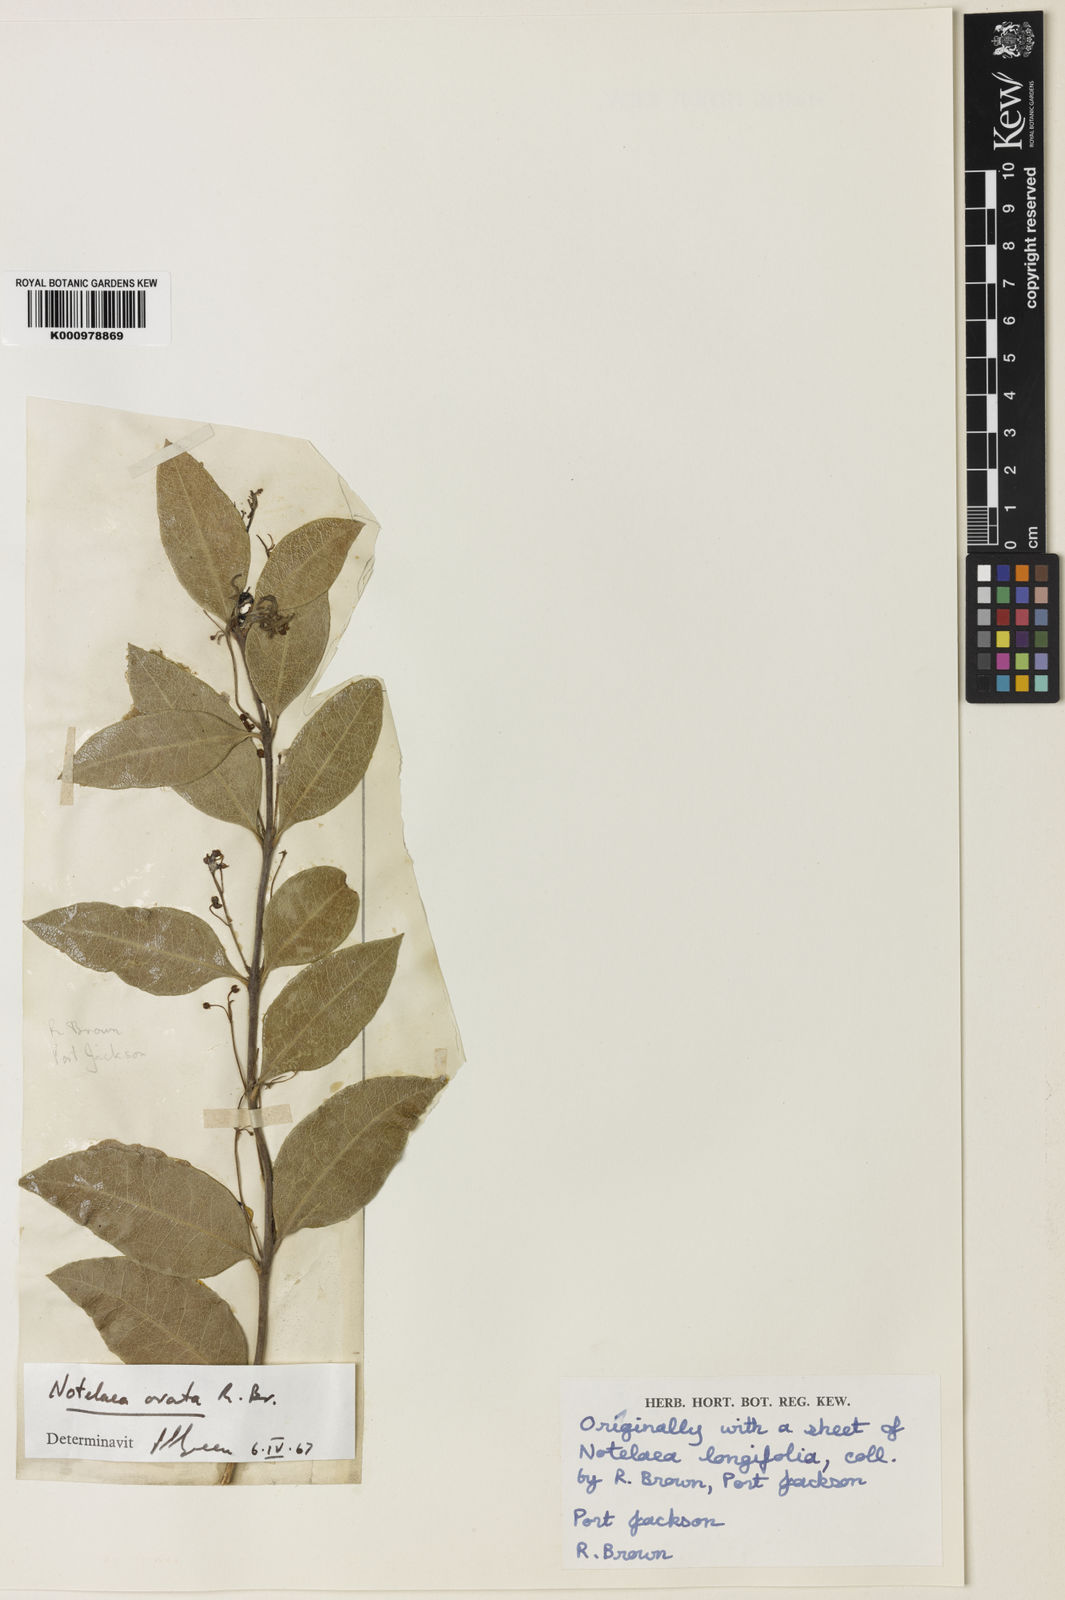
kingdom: Plantae
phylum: Tracheophyta
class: Magnoliopsida
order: Lamiales
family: Oleaceae
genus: Notelaea
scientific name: Notelaea ovata
